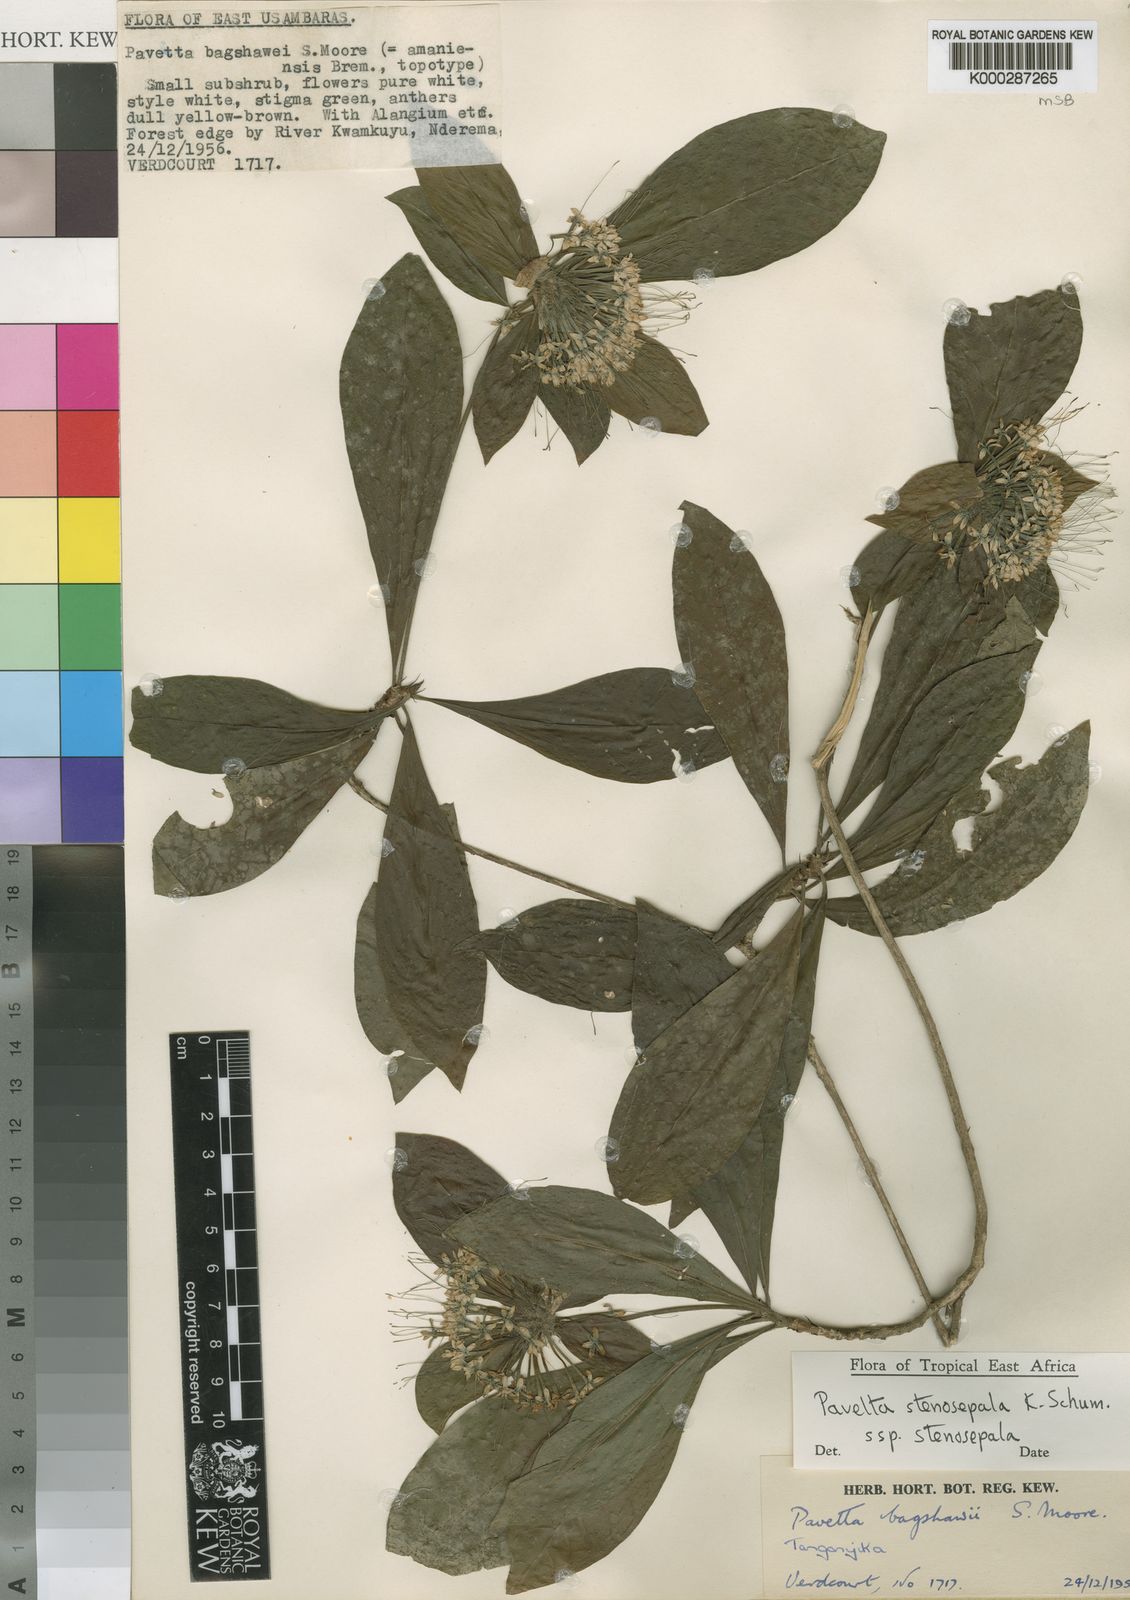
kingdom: Plantae
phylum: Tracheophyta
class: Magnoliopsida
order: Gentianales
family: Rubiaceae
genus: Pavetta
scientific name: Pavetta stenosepala
